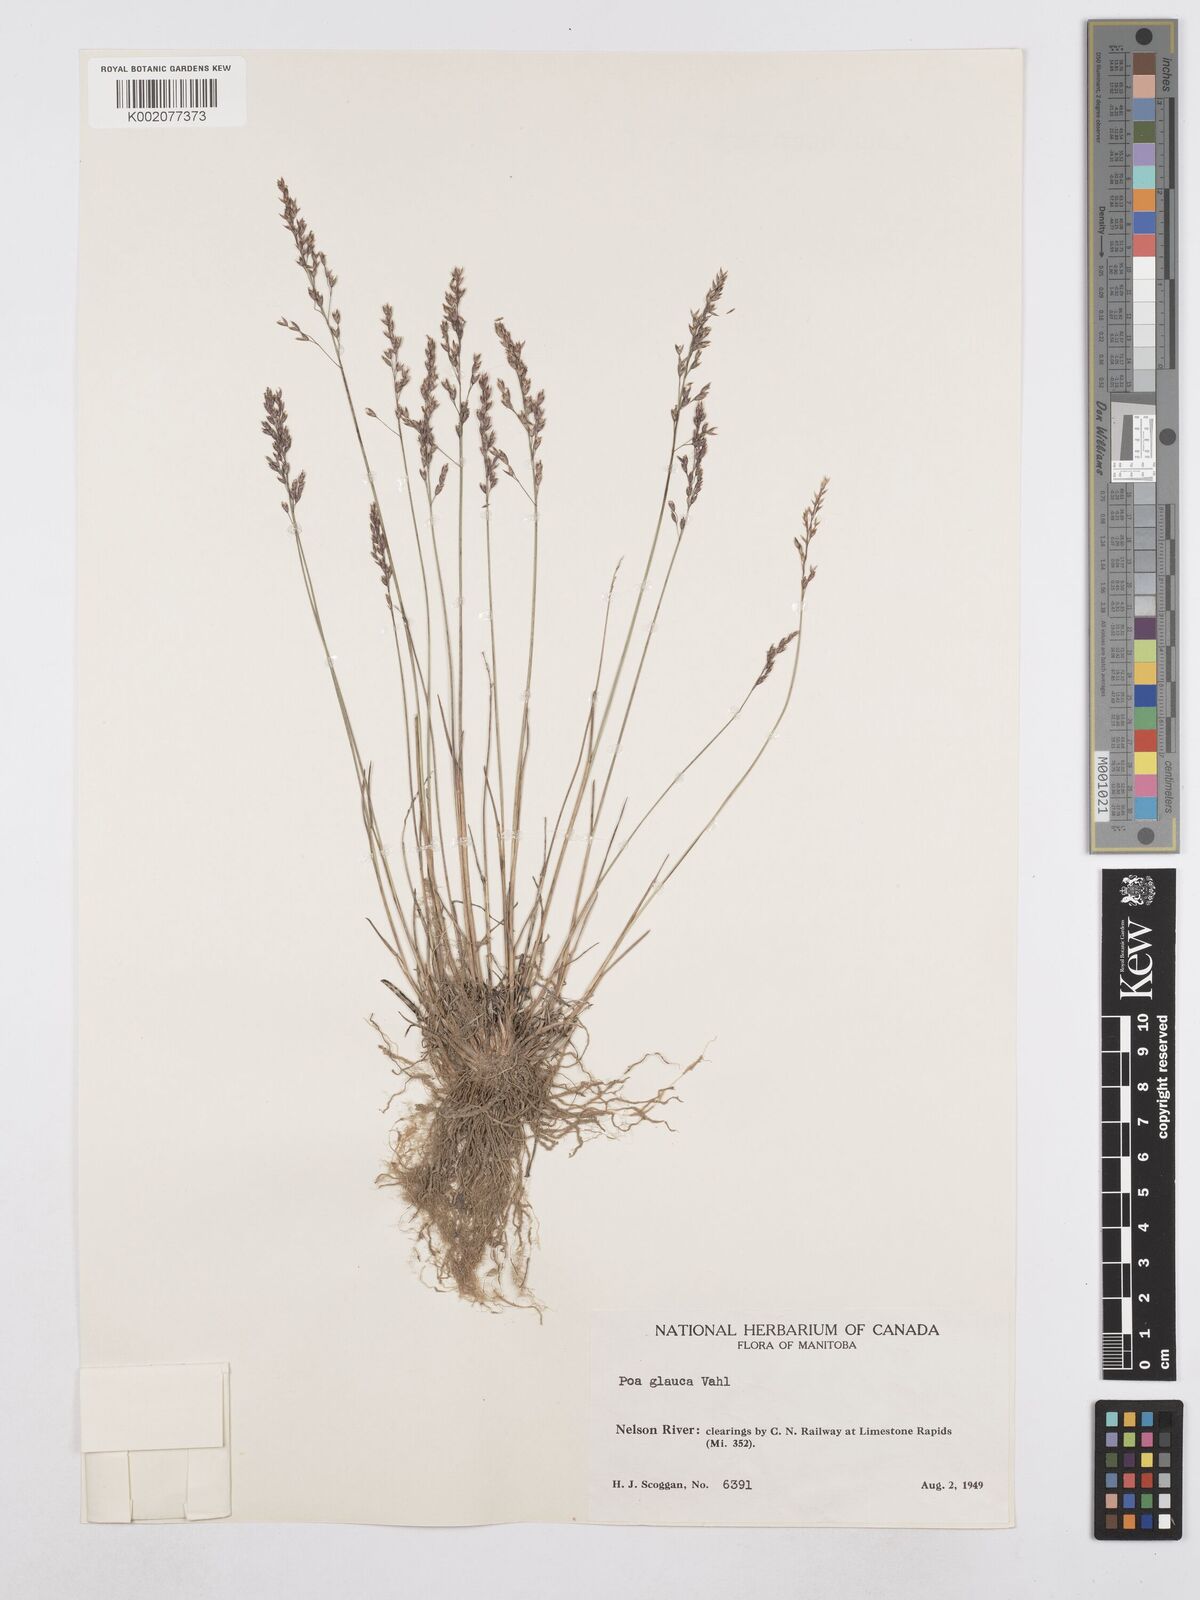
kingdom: Plantae
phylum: Tracheophyta
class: Liliopsida
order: Poales
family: Poaceae
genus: Poa
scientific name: Poa glauca
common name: Glaucous bluegrass
